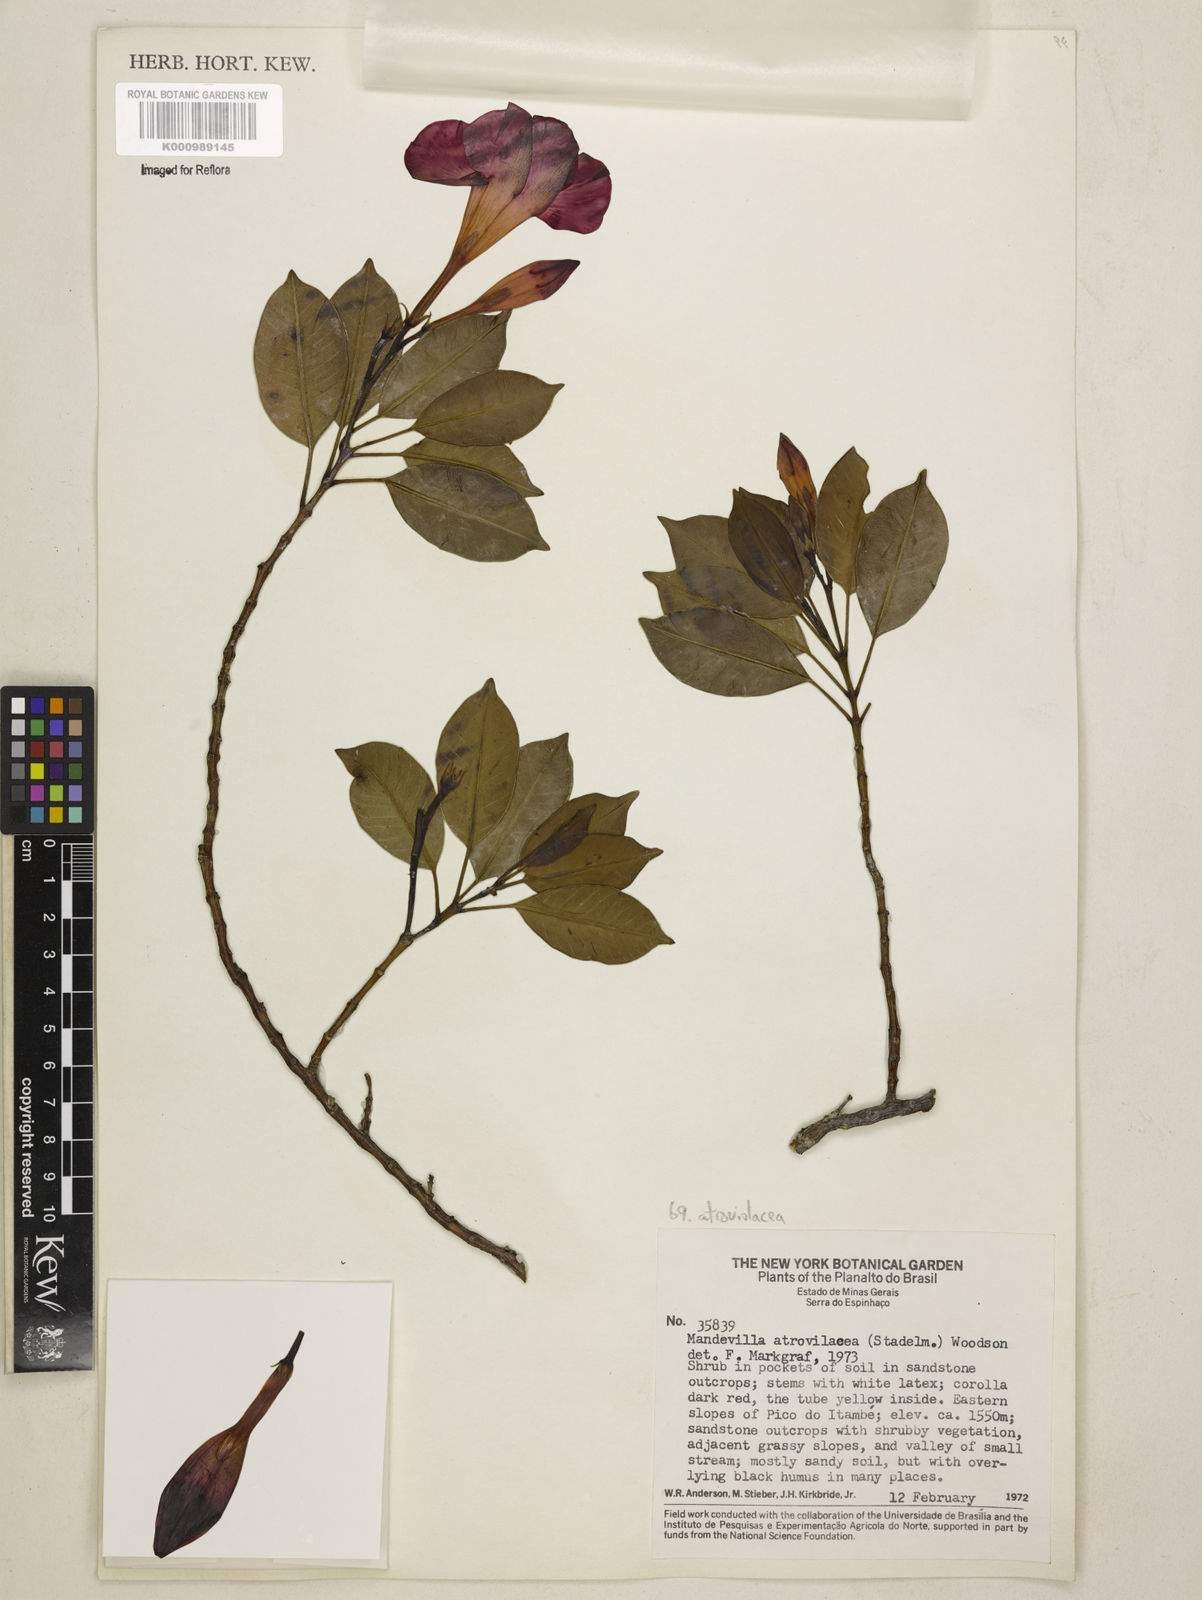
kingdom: Plantae
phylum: Tracheophyta
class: Magnoliopsida
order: Gentianales
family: Apocynaceae
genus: Mandevilla
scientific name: Mandevilla atroviolacea
